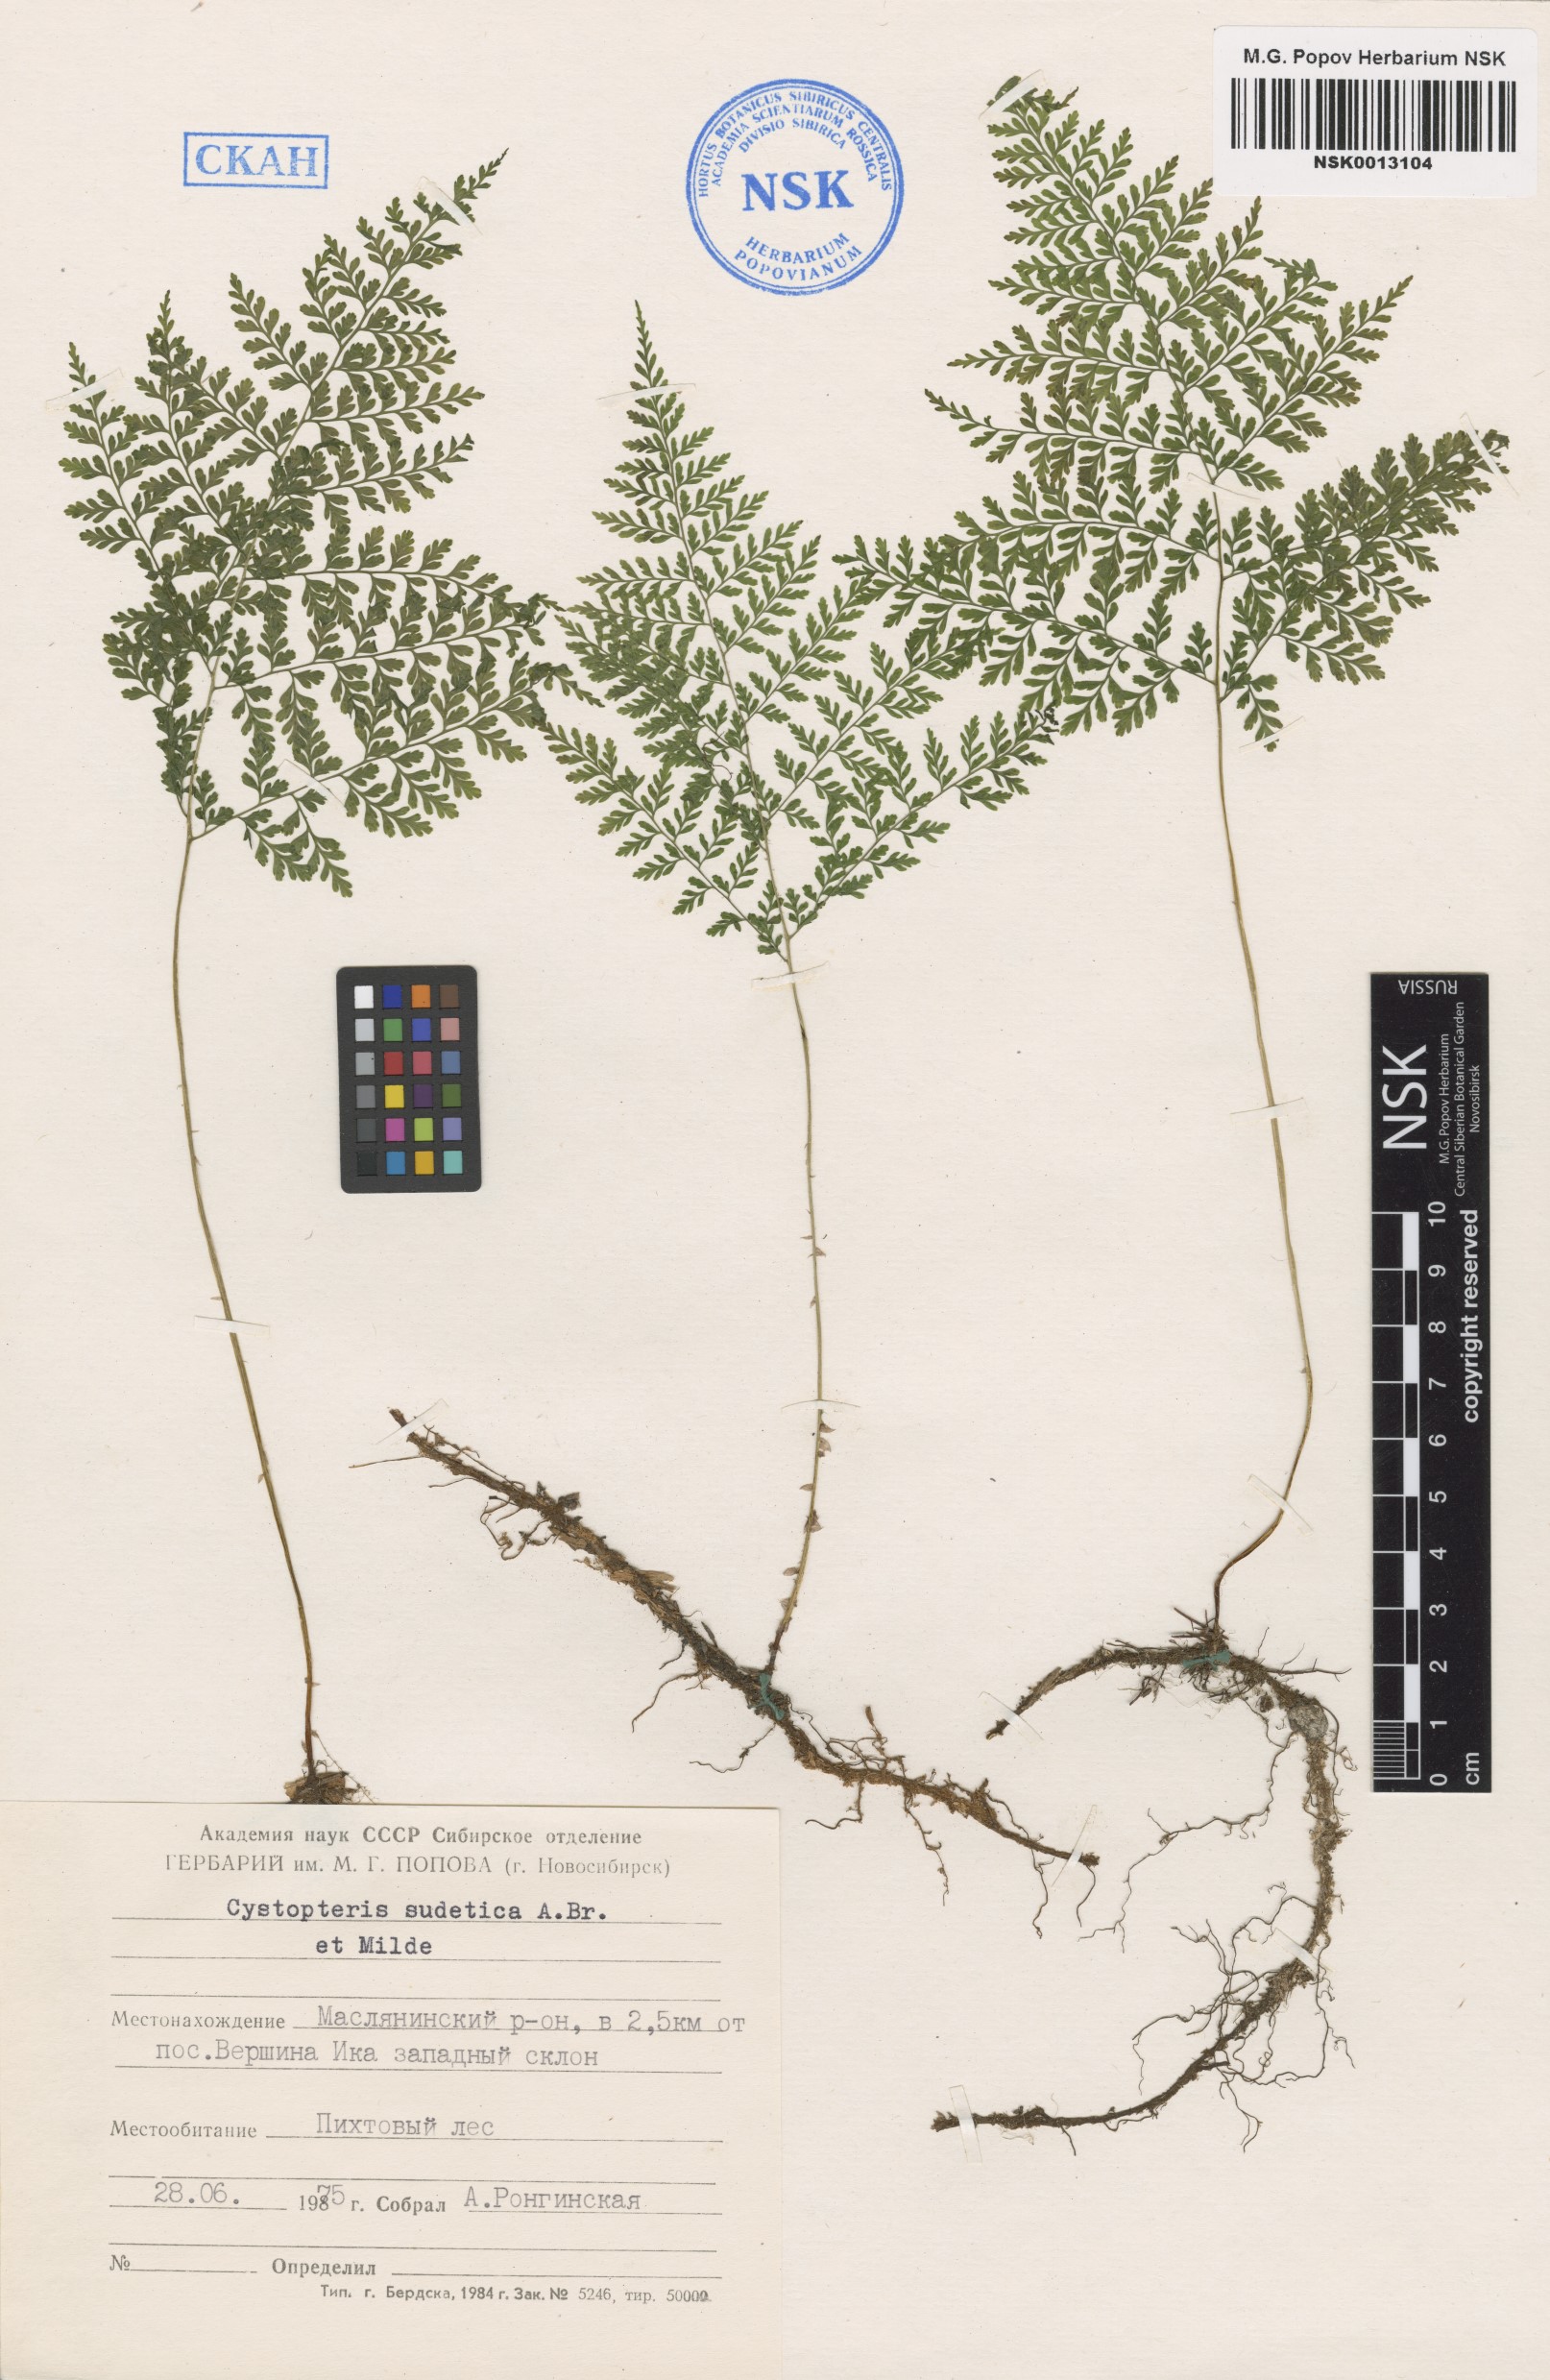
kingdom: Plantae
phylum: Tracheophyta
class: Polypodiopsida
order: Polypodiales
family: Cystopteridaceae
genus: Cystopteris
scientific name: Cystopteris sudetica
